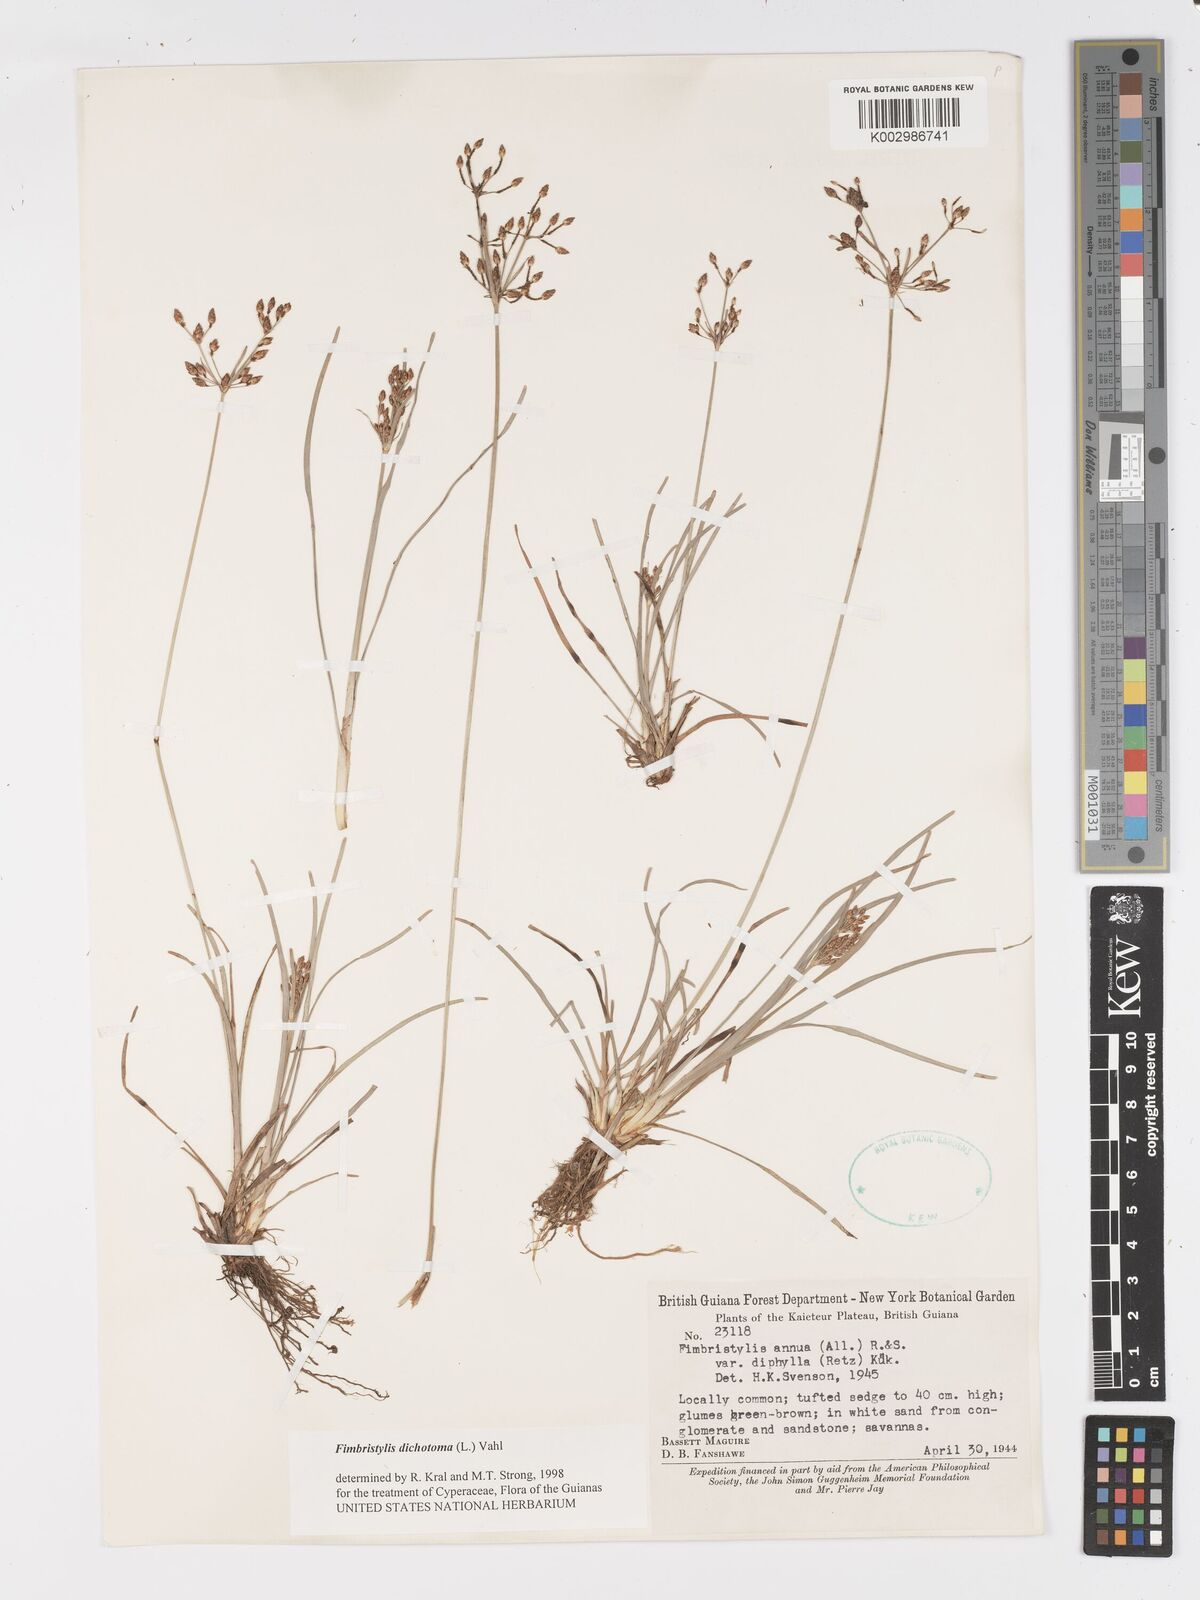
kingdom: Plantae
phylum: Tracheophyta
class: Liliopsida
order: Poales
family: Cyperaceae
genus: Fimbristylis
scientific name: Fimbristylis dichotoma
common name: Forked fimbry
